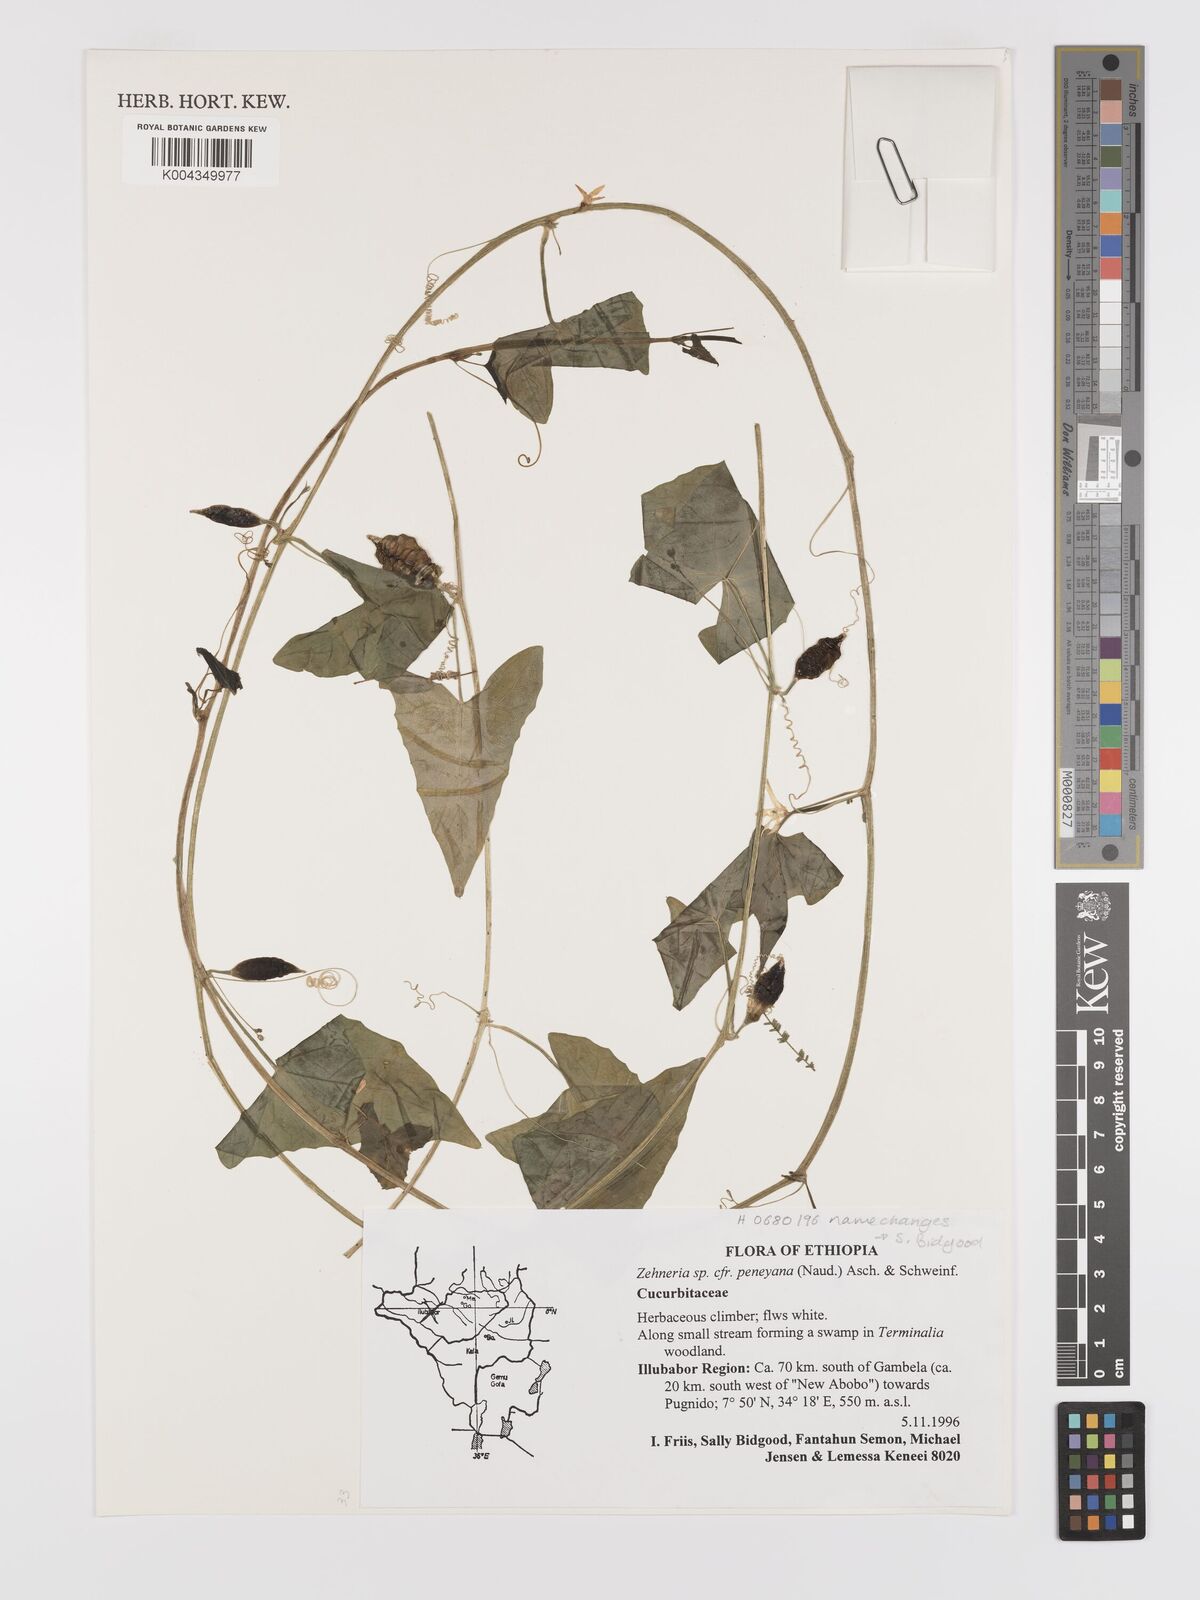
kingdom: Plantae
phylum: Tracheophyta
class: Magnoliopsida
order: Cucurbitales
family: Cucurbitaceae
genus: Zehneria
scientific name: Zehneria peneyana
